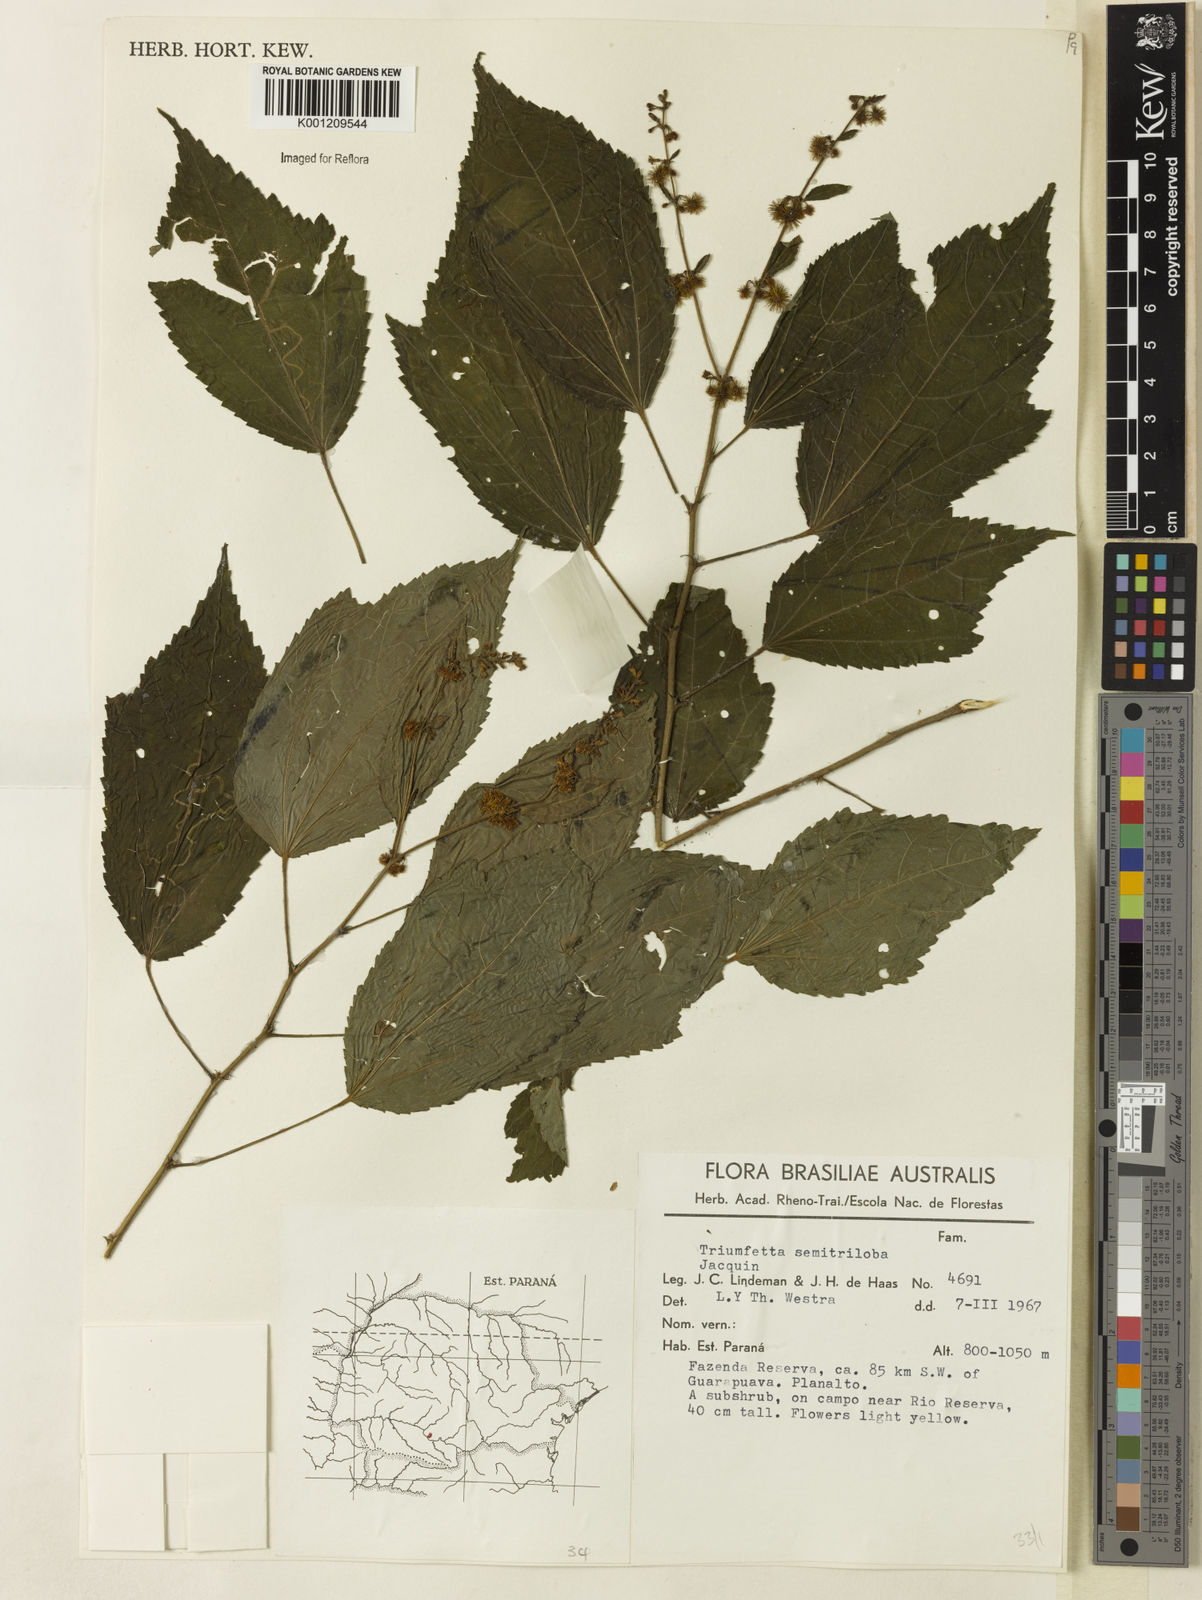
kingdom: Plantae
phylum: Tracheophyta
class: Magnoliopsida
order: Malvales
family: Malvaceae
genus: Triumfetta
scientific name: Triumfetta semitriloba
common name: Sacramento burbark
